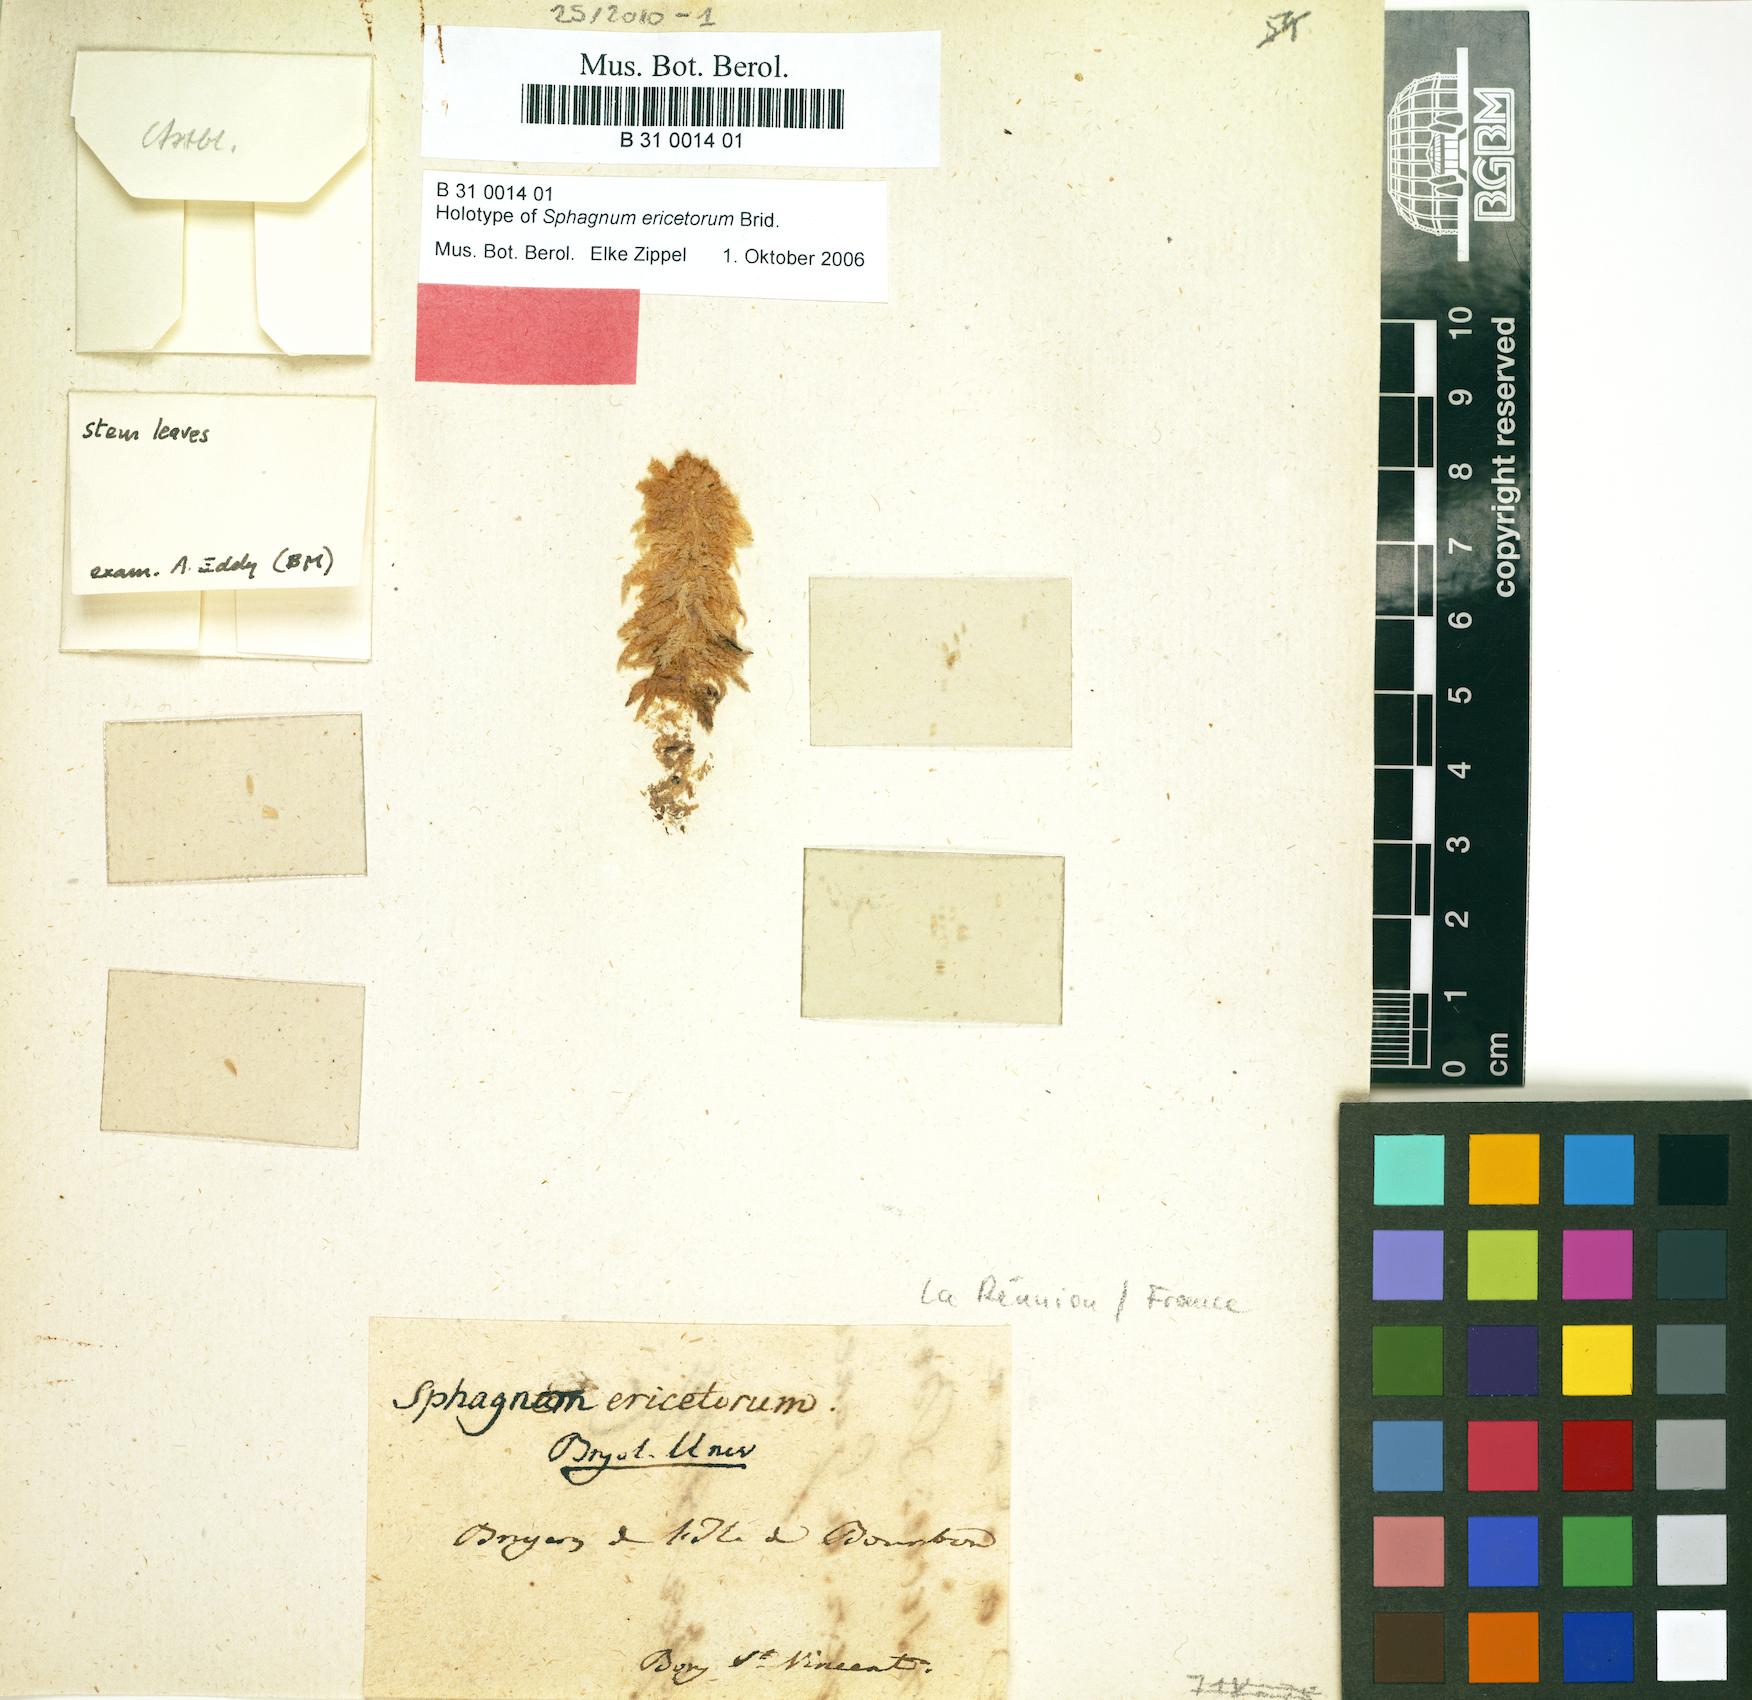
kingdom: Plantae
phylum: Bryophyta
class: Sphagnopsida
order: Sphagnales
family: Sphagnaceae
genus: Sphagnum
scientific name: Sphagnum ericetorum
